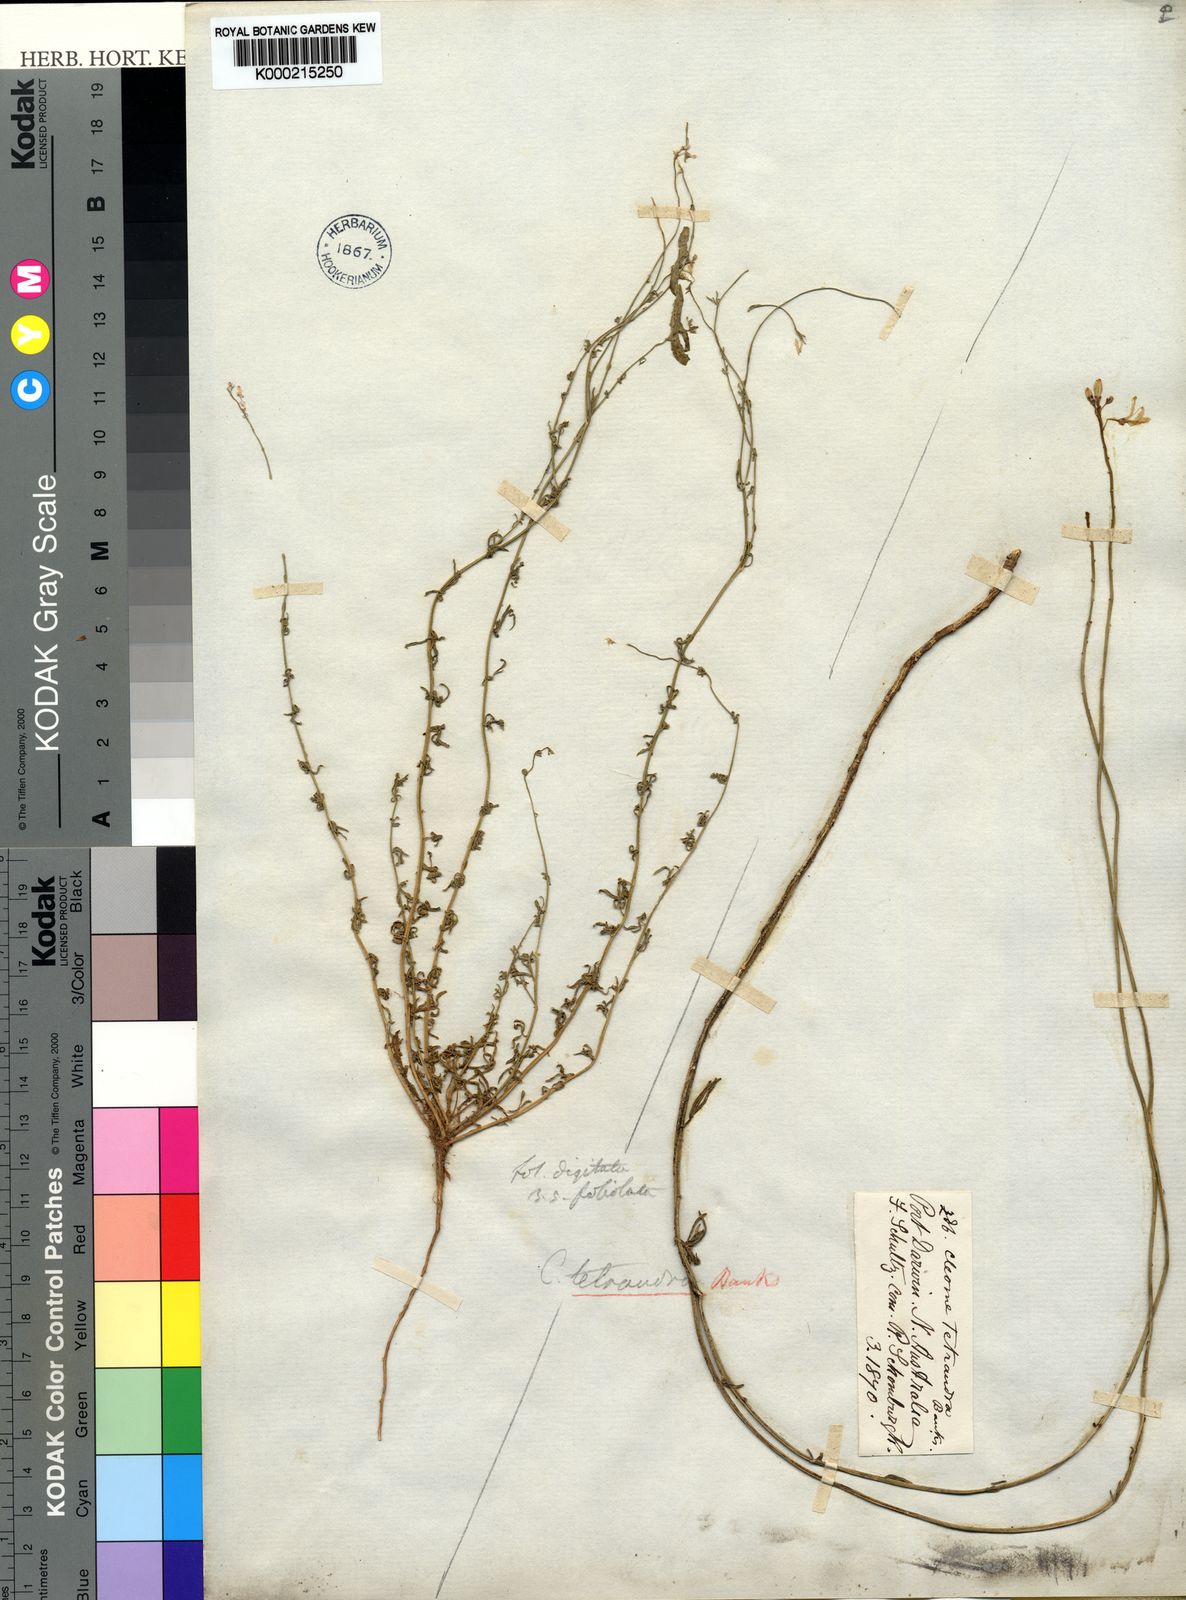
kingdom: Plantae
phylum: Tracheophyta
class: Magnoliopsida
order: Brassicales
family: Cleomaceae
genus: Arivela
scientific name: Arivela tetrandra
